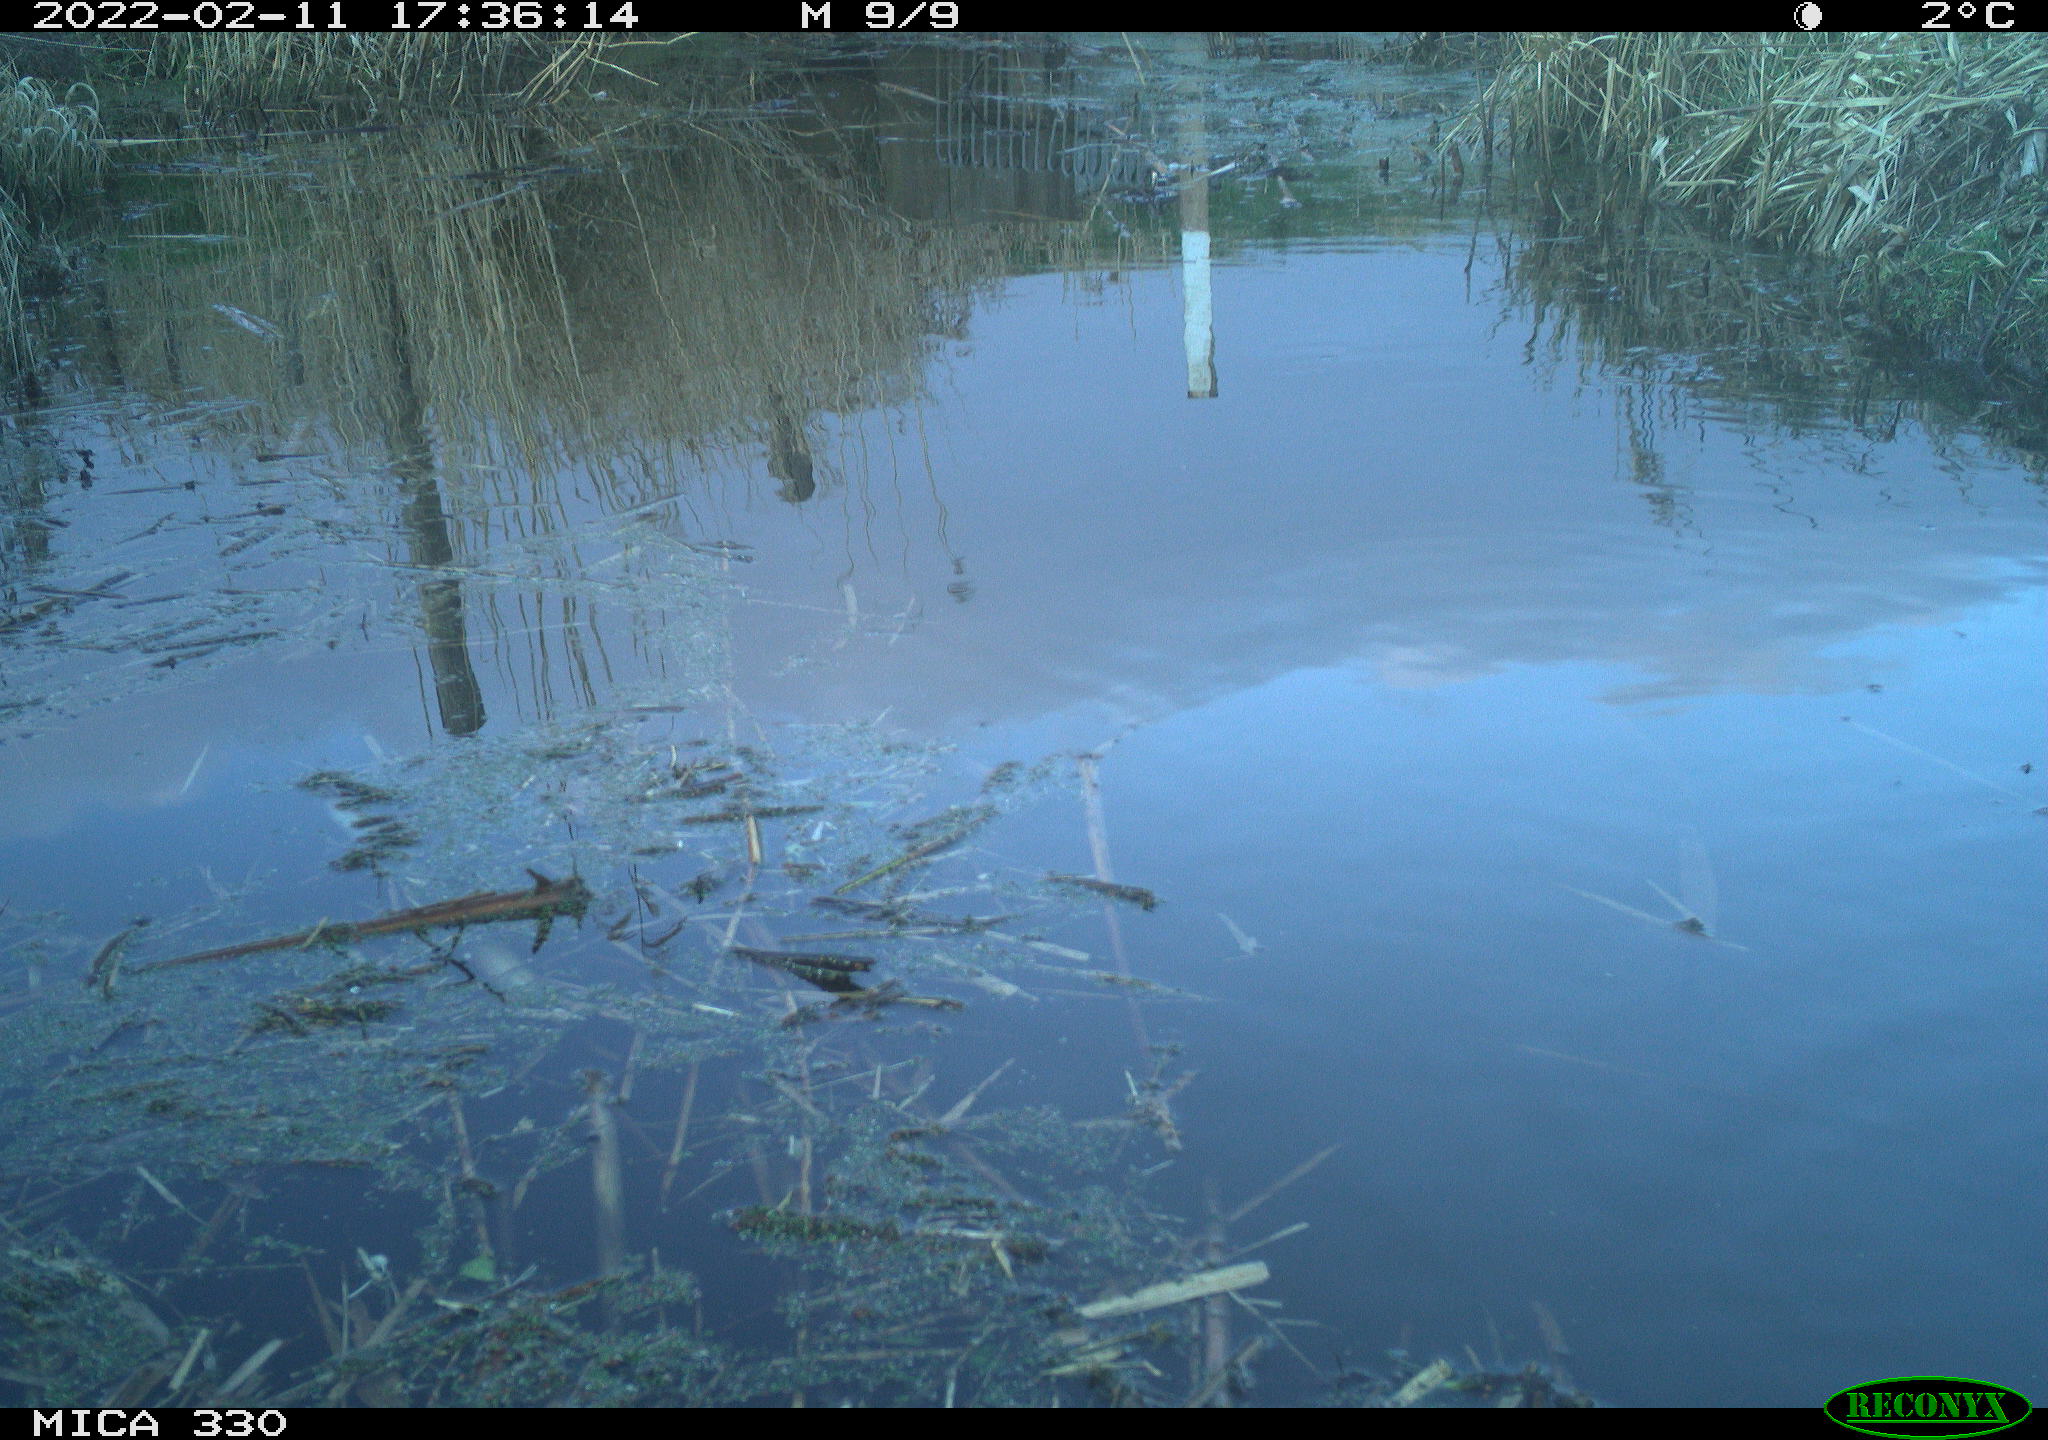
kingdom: Animalia
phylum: Chordata
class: Aves
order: Gruiformes
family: Rallidae
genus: Gallinula
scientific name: Gallinula chloropus
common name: Common moorhen
